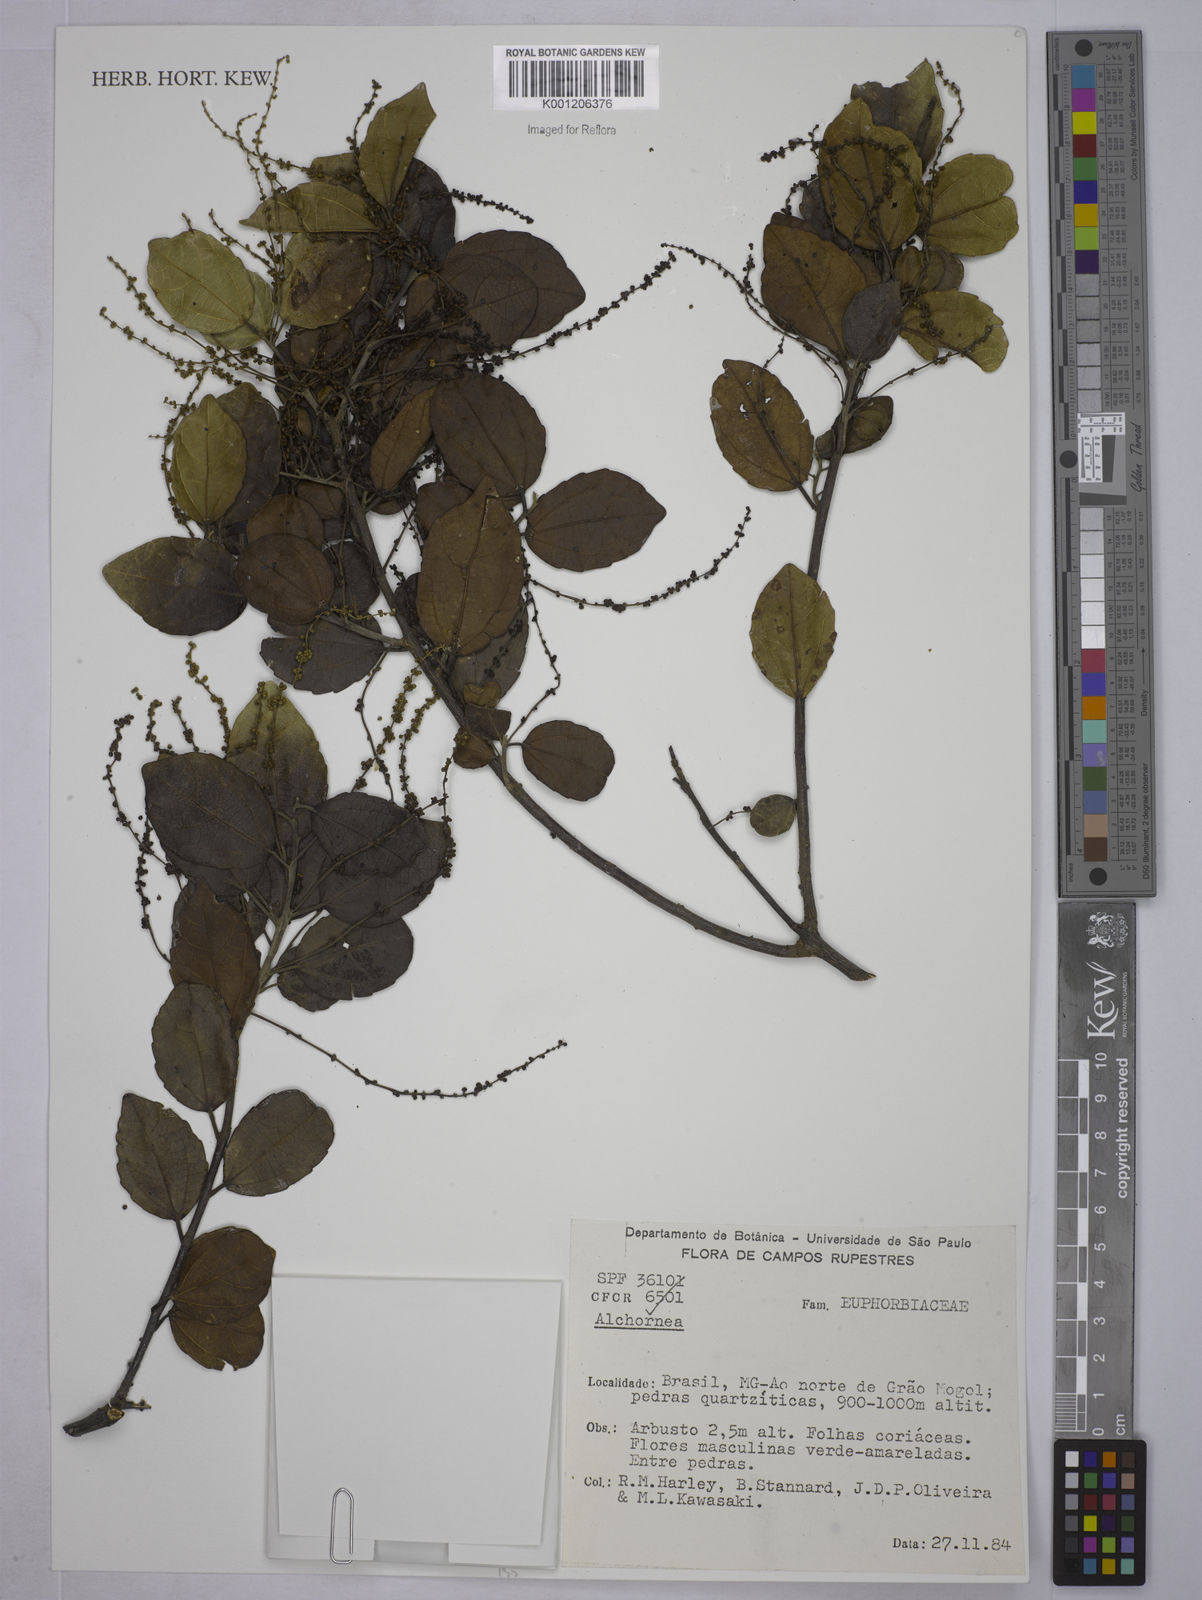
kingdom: Plantae
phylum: Tracheophyta
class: Magnoliopsida
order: Malpighiales
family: Euphorbiaceae
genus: Alchornea
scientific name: Alchornea
